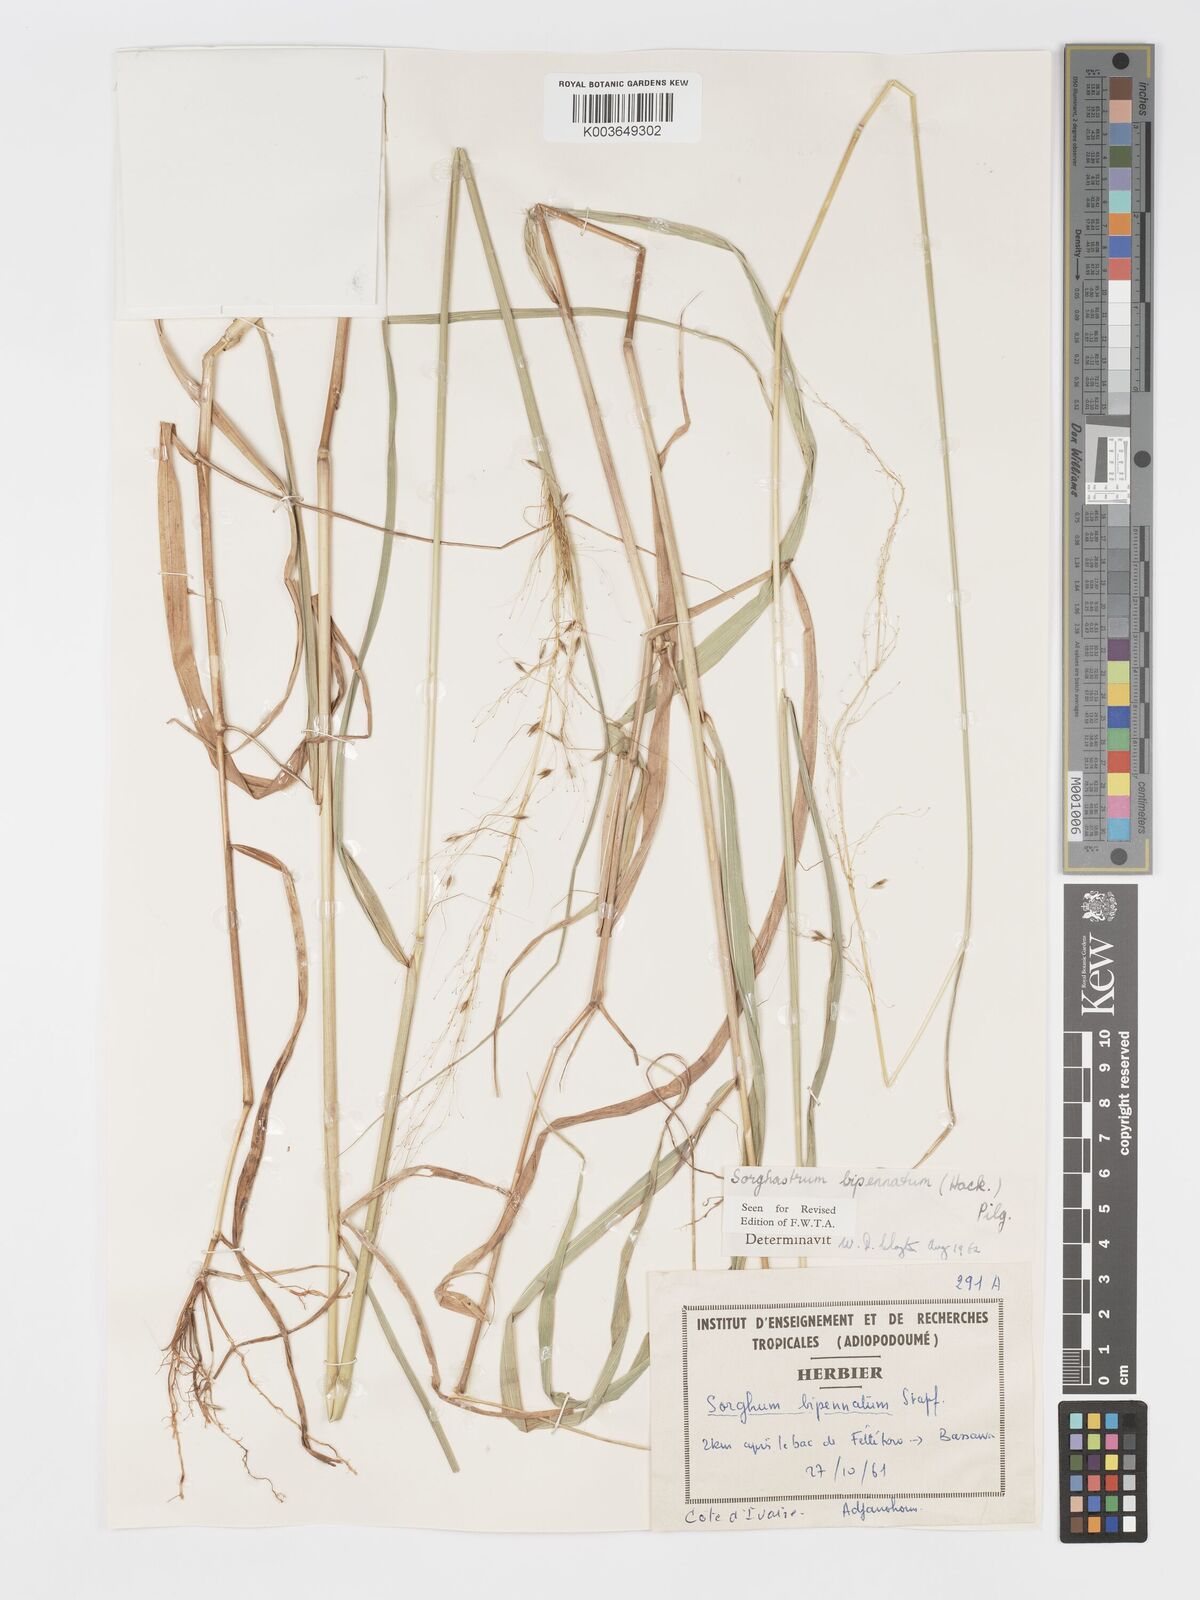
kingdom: Plantae
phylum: Tracheophyta
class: Liliopsida
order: Poales
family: Poaceae
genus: Sorghastrum
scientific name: Sorghastrum incompletum
